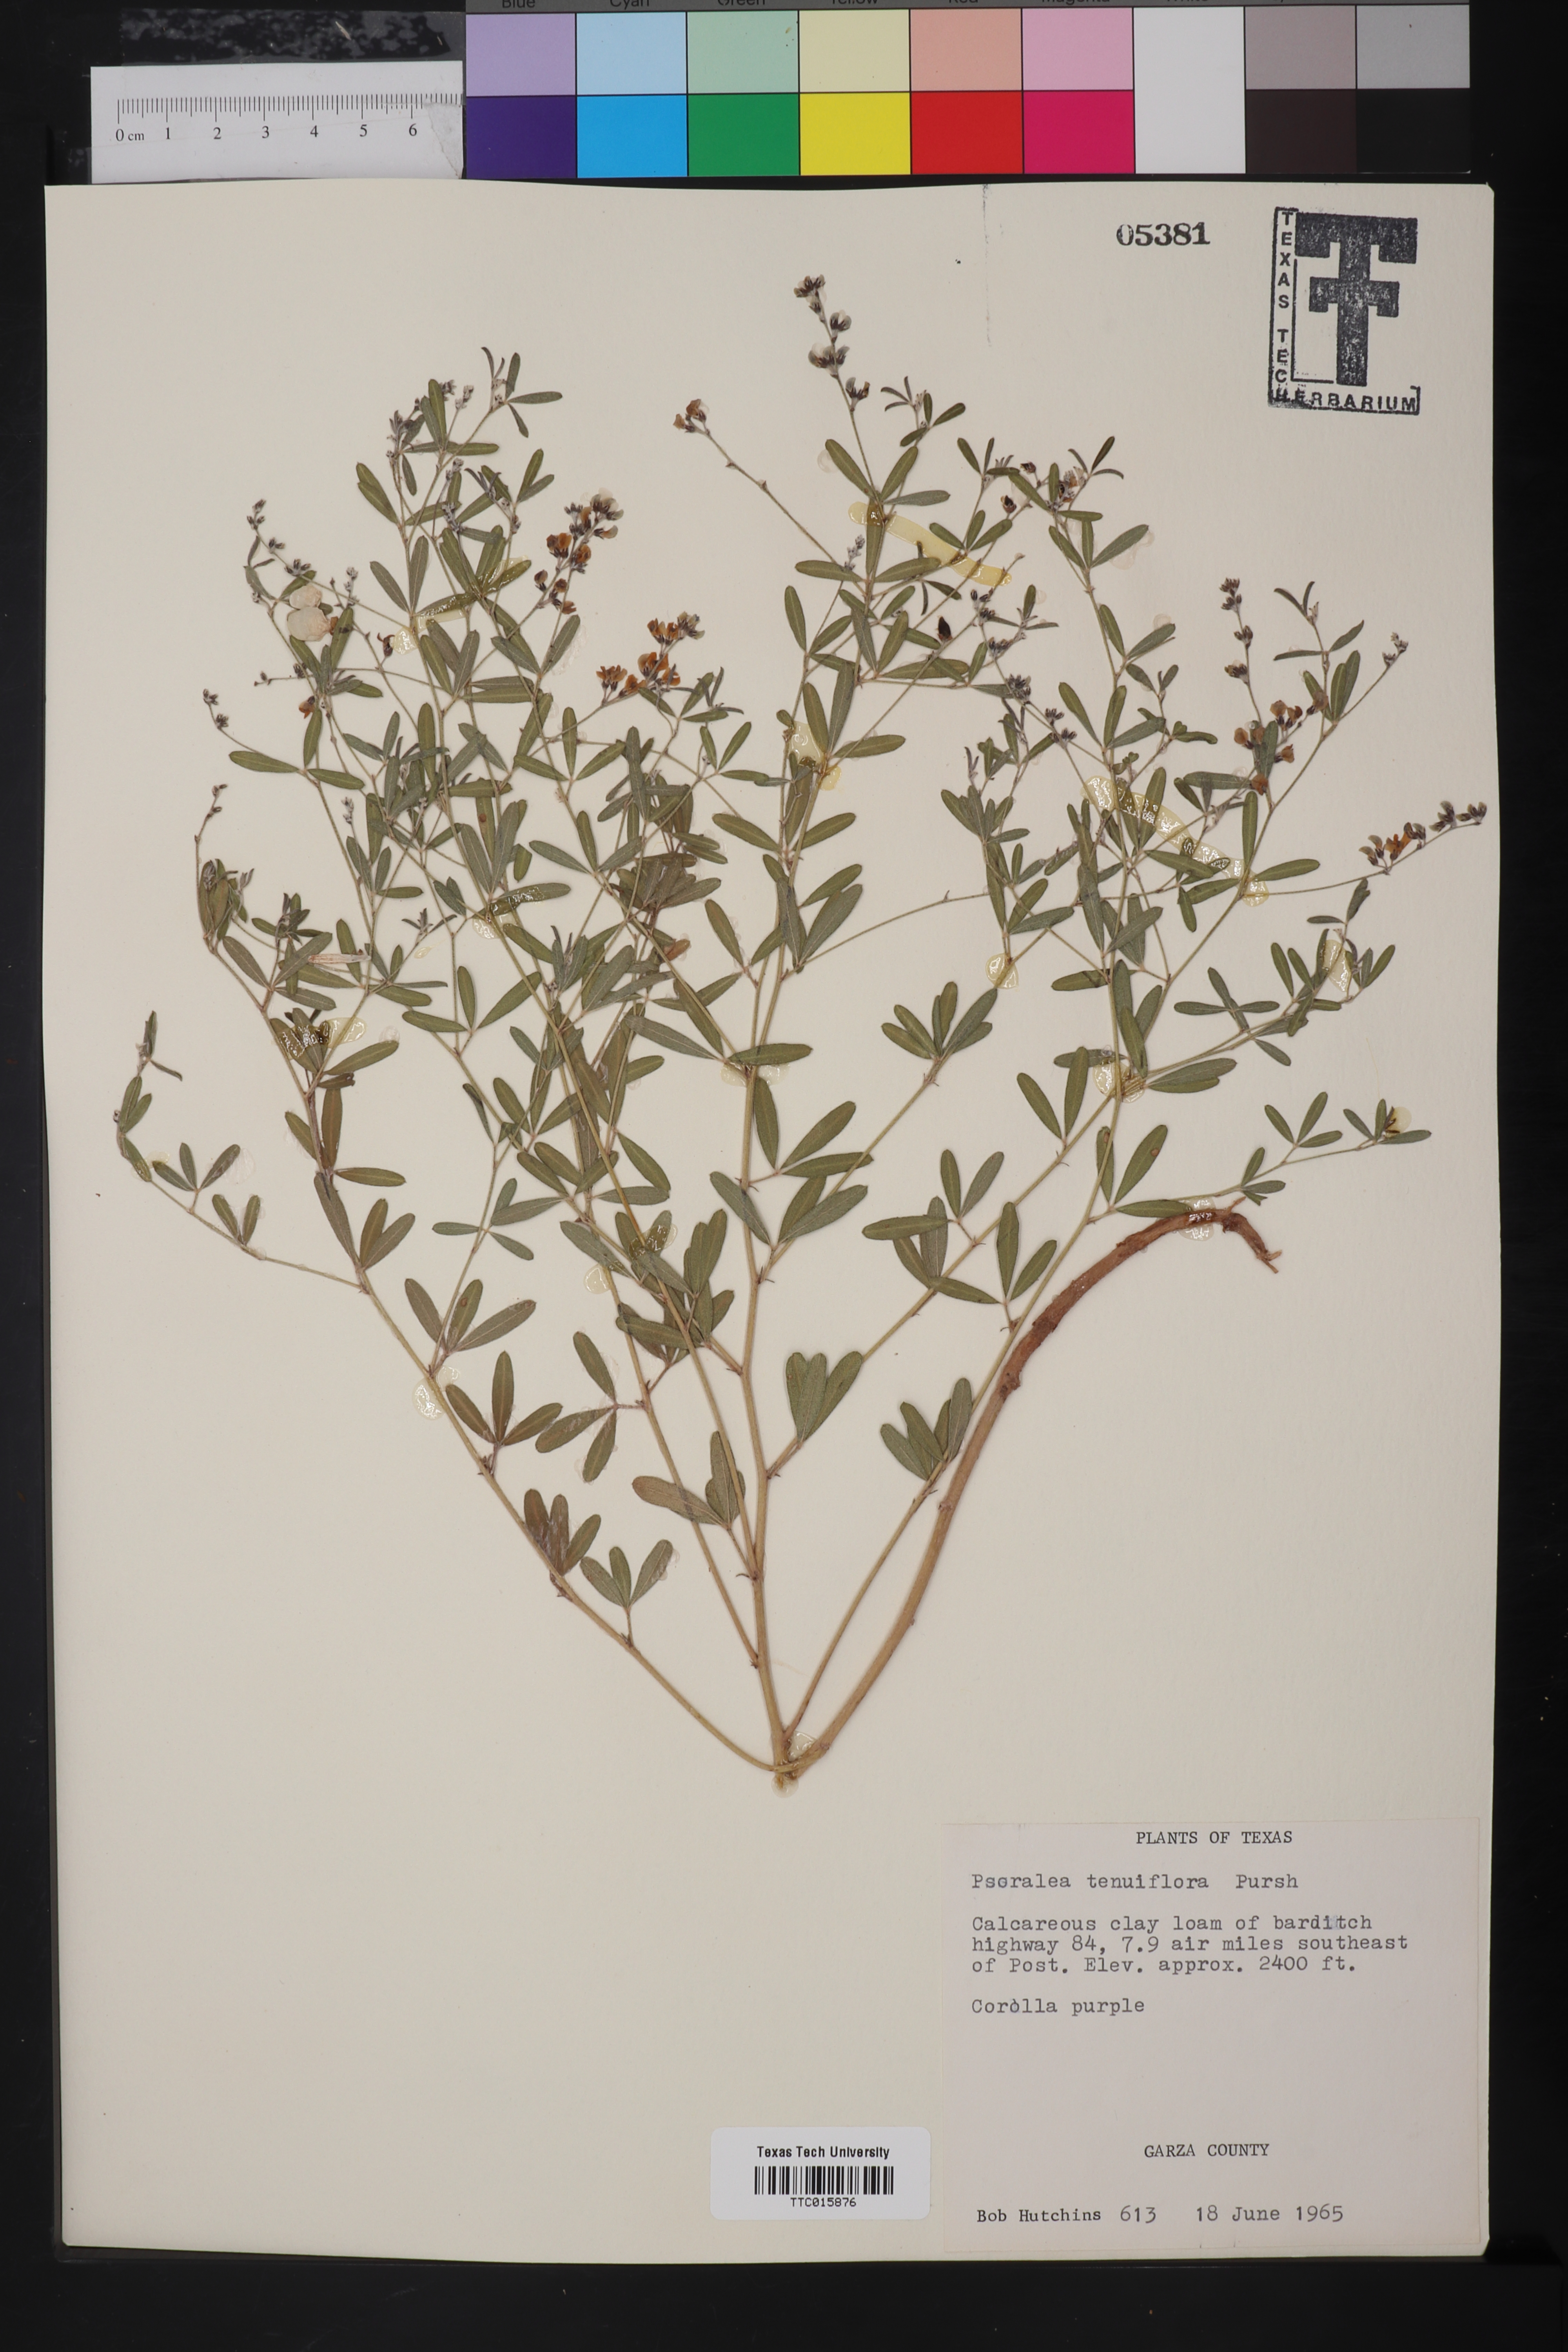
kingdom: Plantae
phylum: Tracheophyta
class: Magnoliopsida
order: Fabales
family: Fabaceae
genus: Pediomelum
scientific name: Pediomelum tenuiflorum
